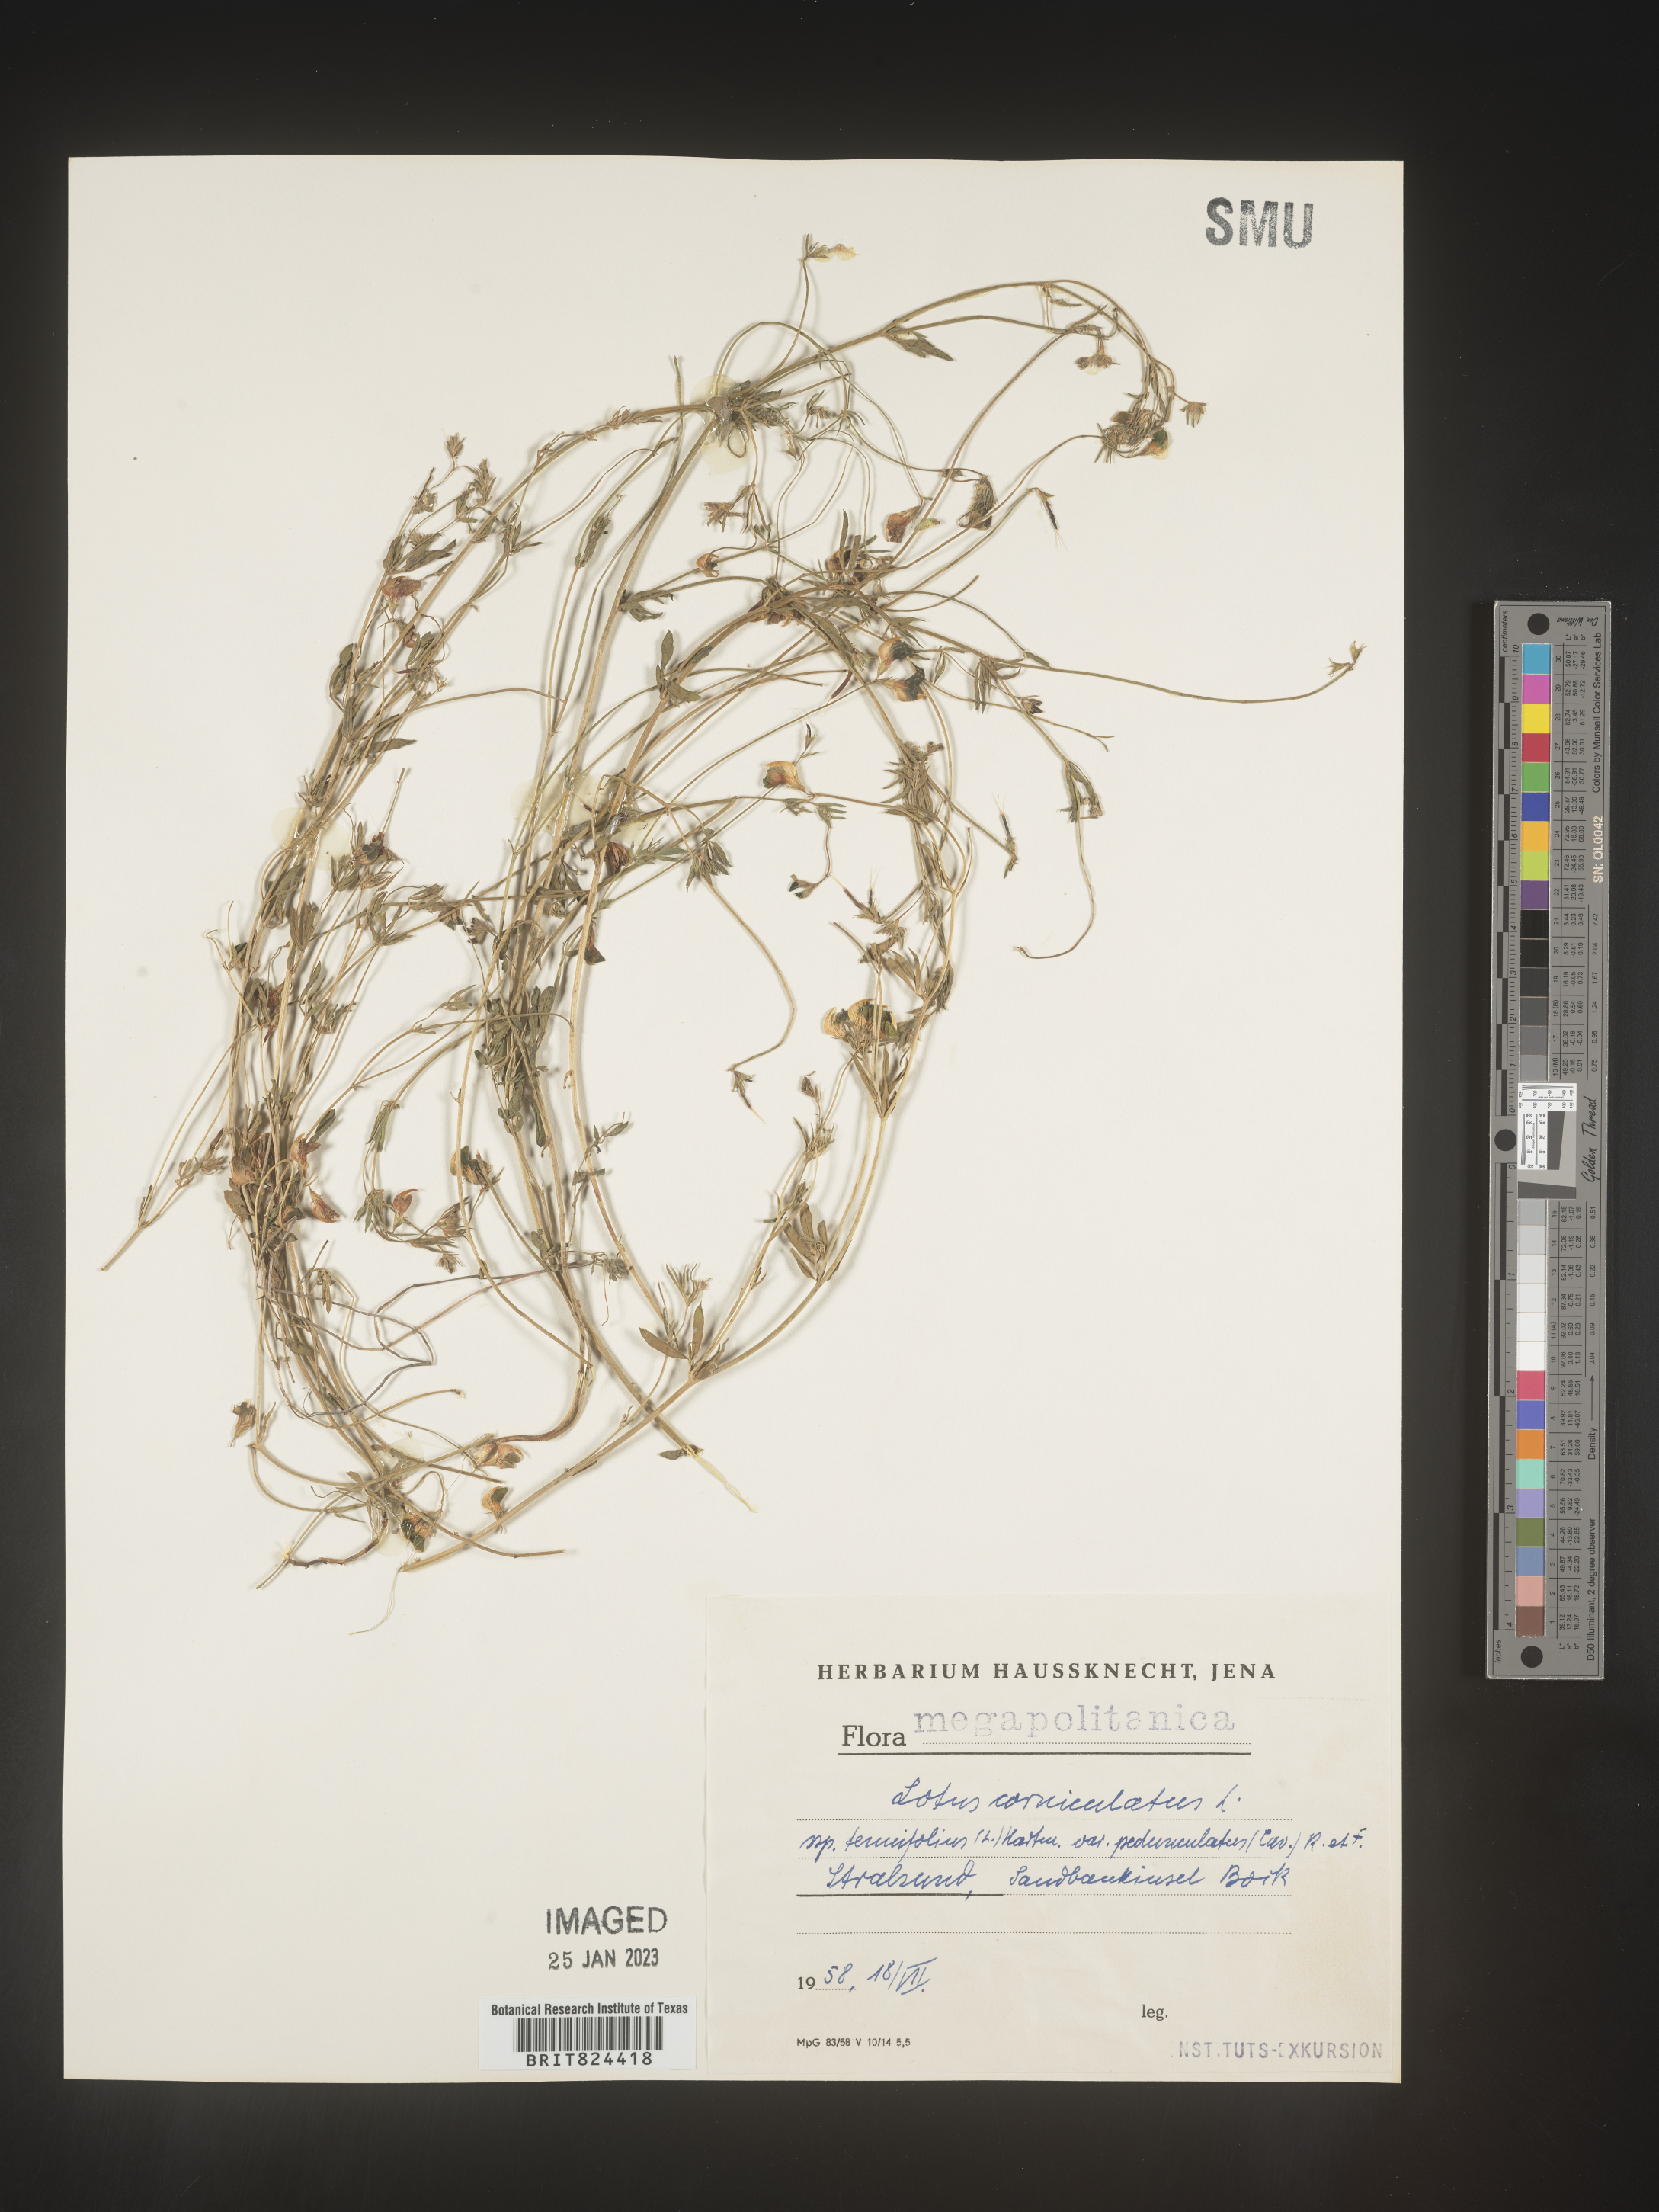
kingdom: Plantae
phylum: Tracheophyta
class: Magnoliopsida
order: Fabales
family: Fabaceae
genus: Lotus
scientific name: Lotus
